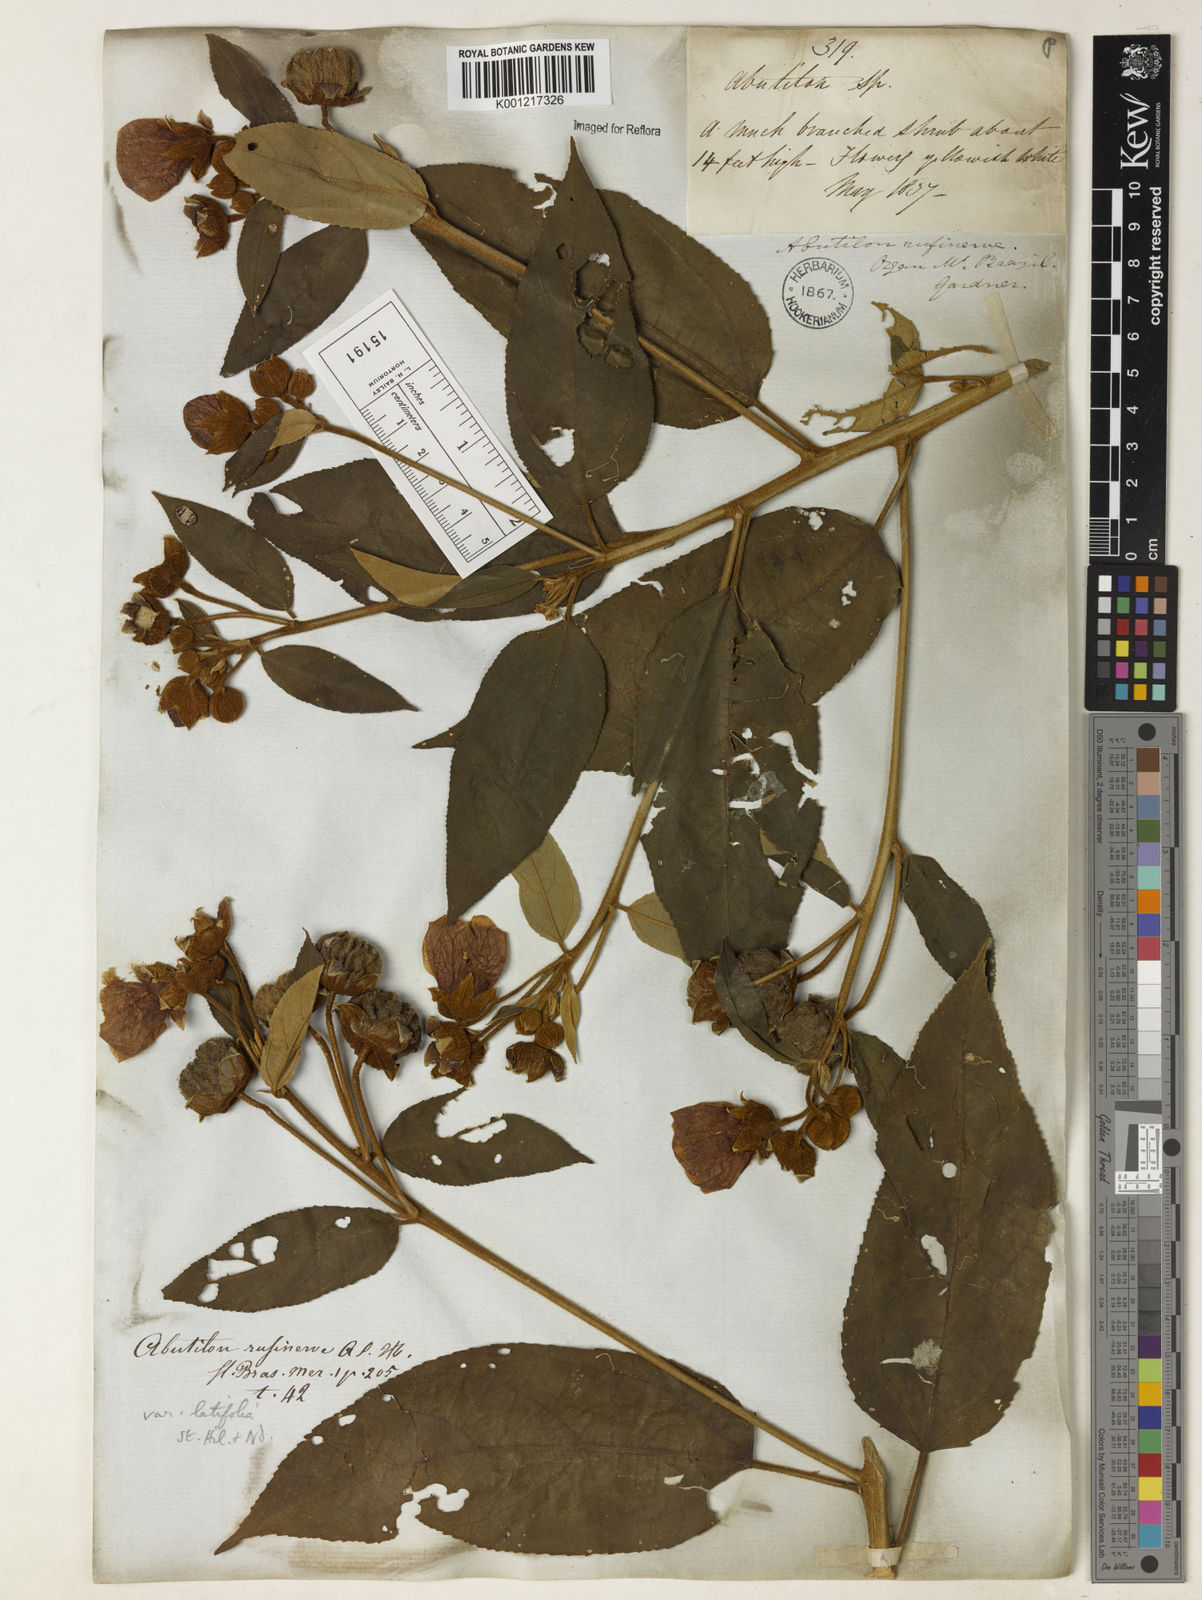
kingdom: Plantae
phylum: Tracheophyta
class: Magnoliopsida
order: Malvales
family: Malvaceae
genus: Callianthe
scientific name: Callianthe rufinerva
